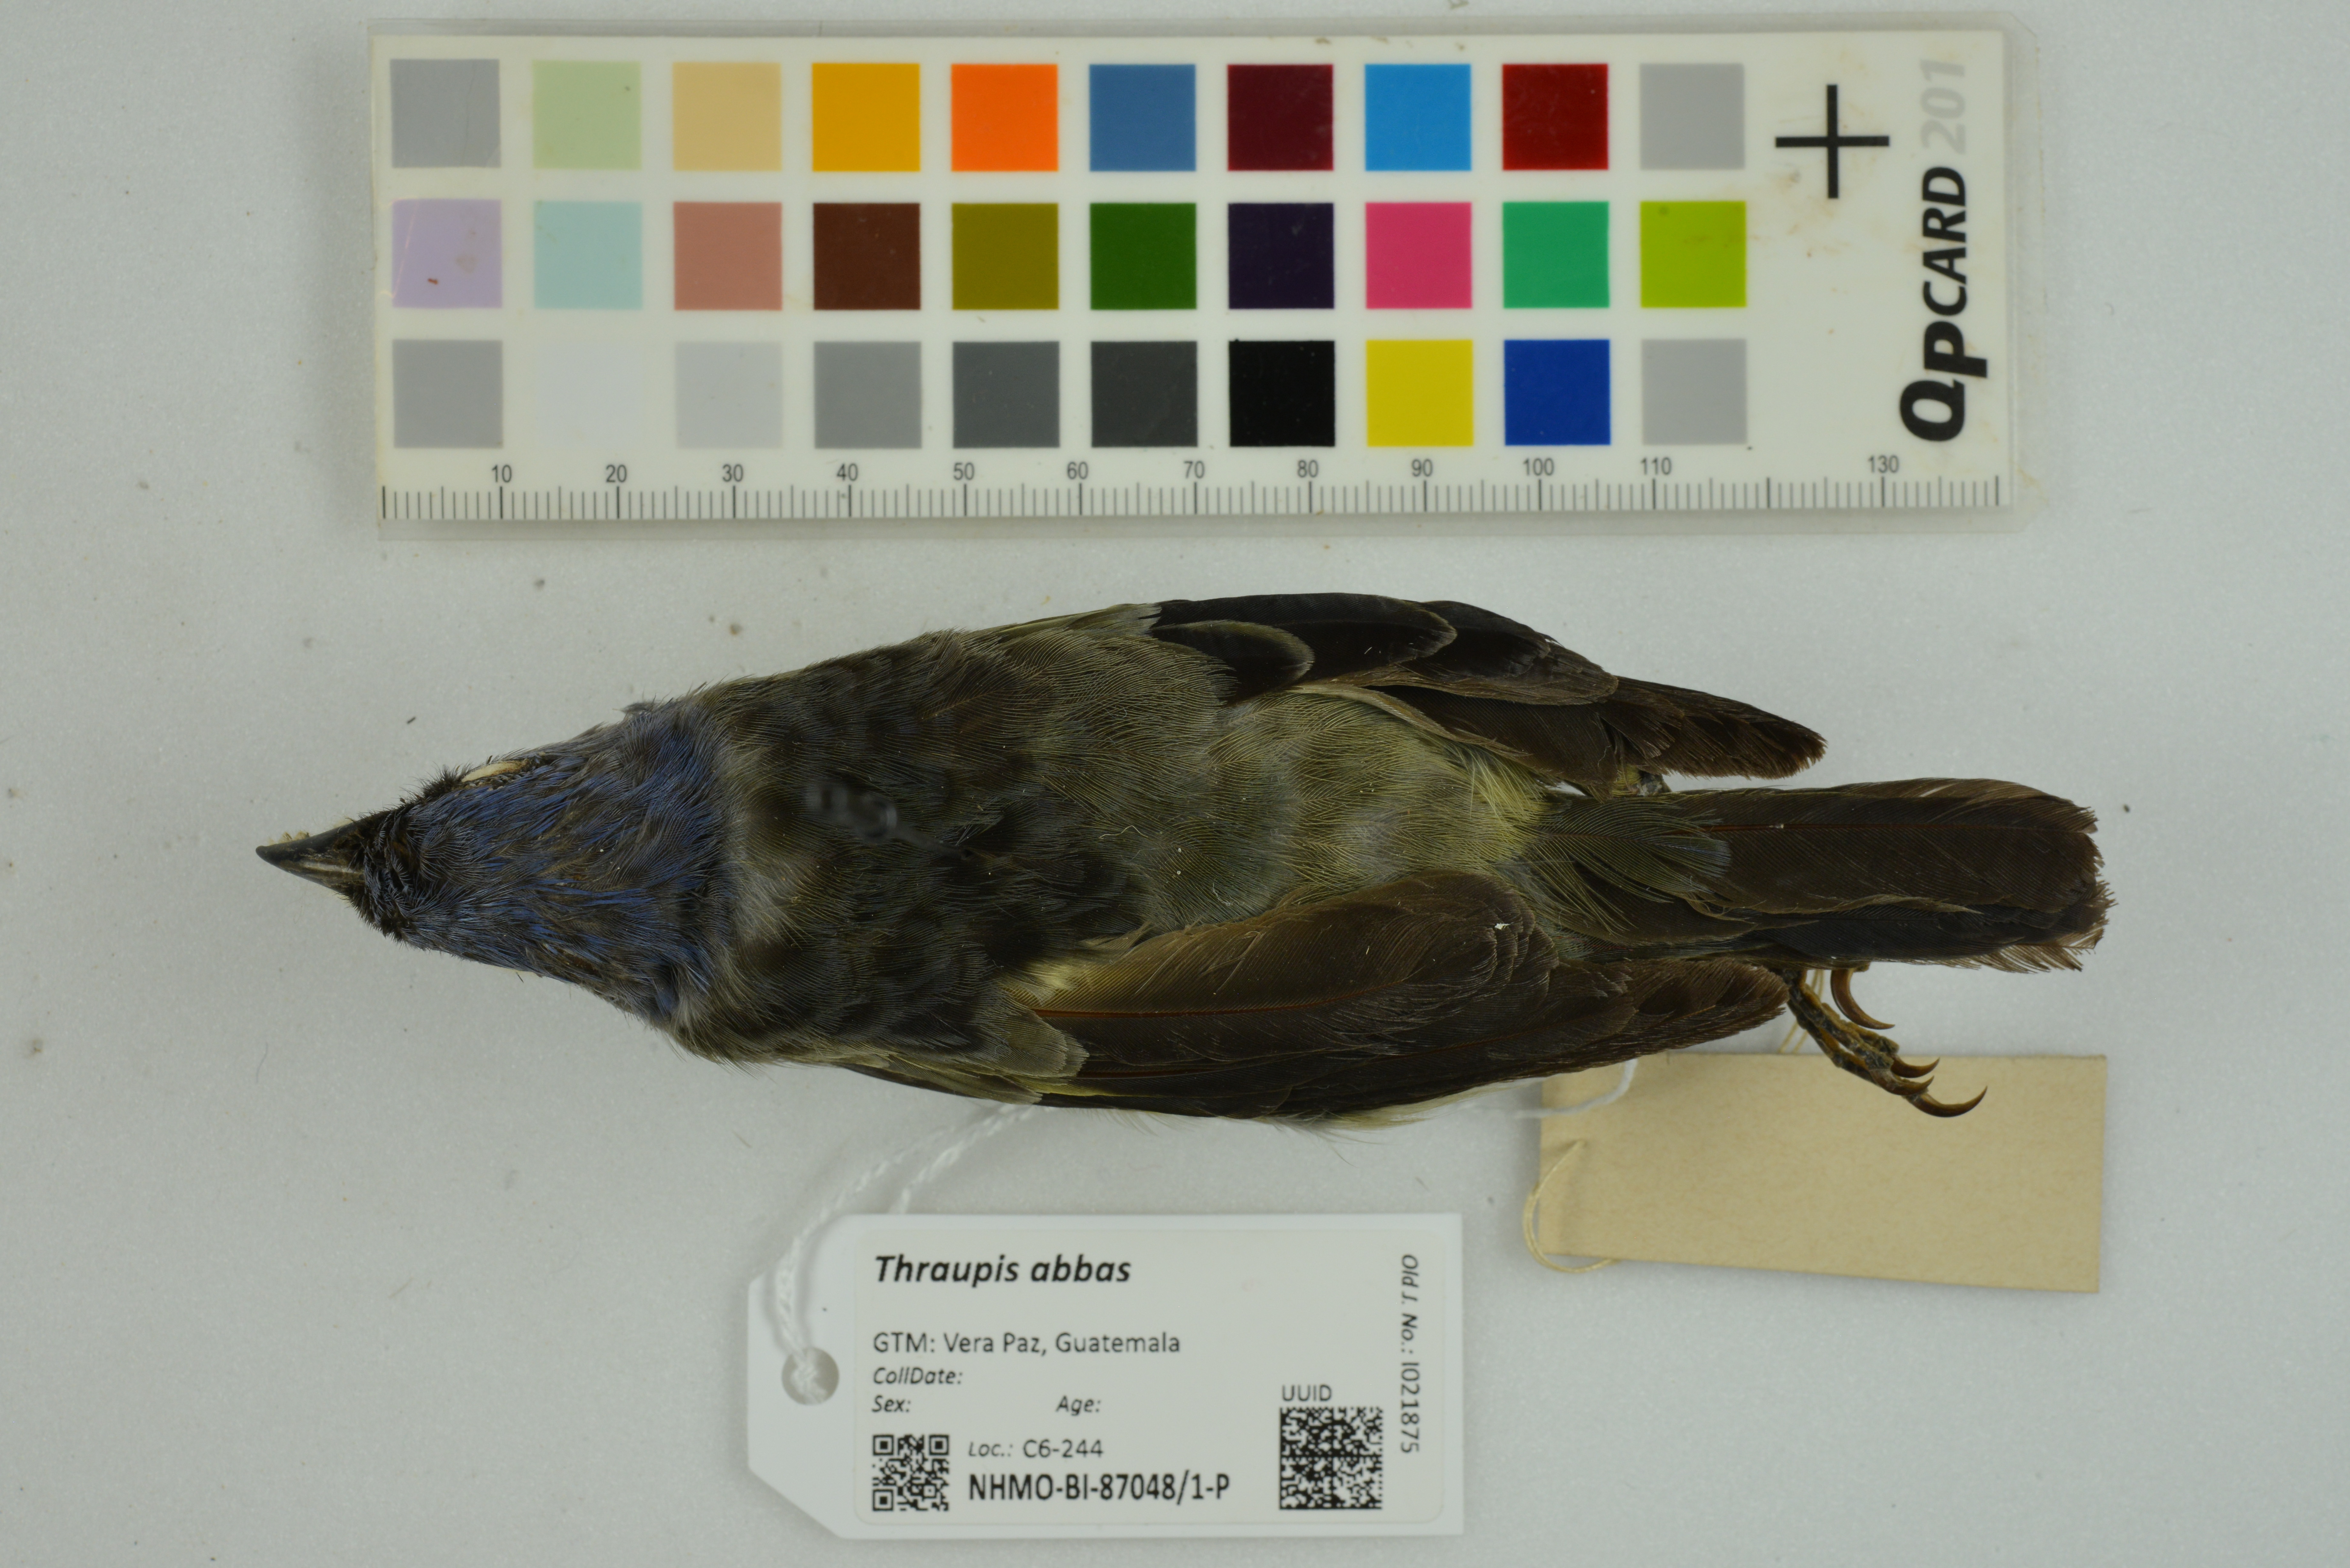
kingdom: Animalia
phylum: Chordata
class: Aves
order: Passeriformes
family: Thraupidae
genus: Thraupis
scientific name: Thraupis abbas
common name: Yellow-winged tanager
